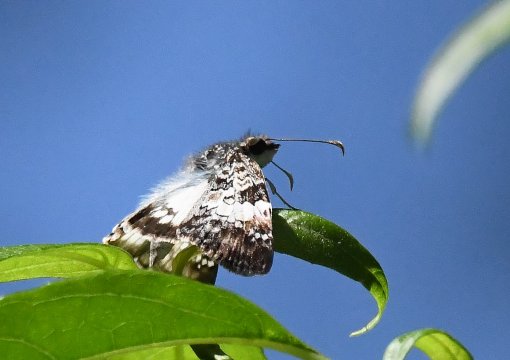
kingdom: Animalia
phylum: Arthropoda
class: Insecta
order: Lepidoptera
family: Hesperiidae
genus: Chiomara
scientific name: Chiomara asychis
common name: White-patched Skipper
